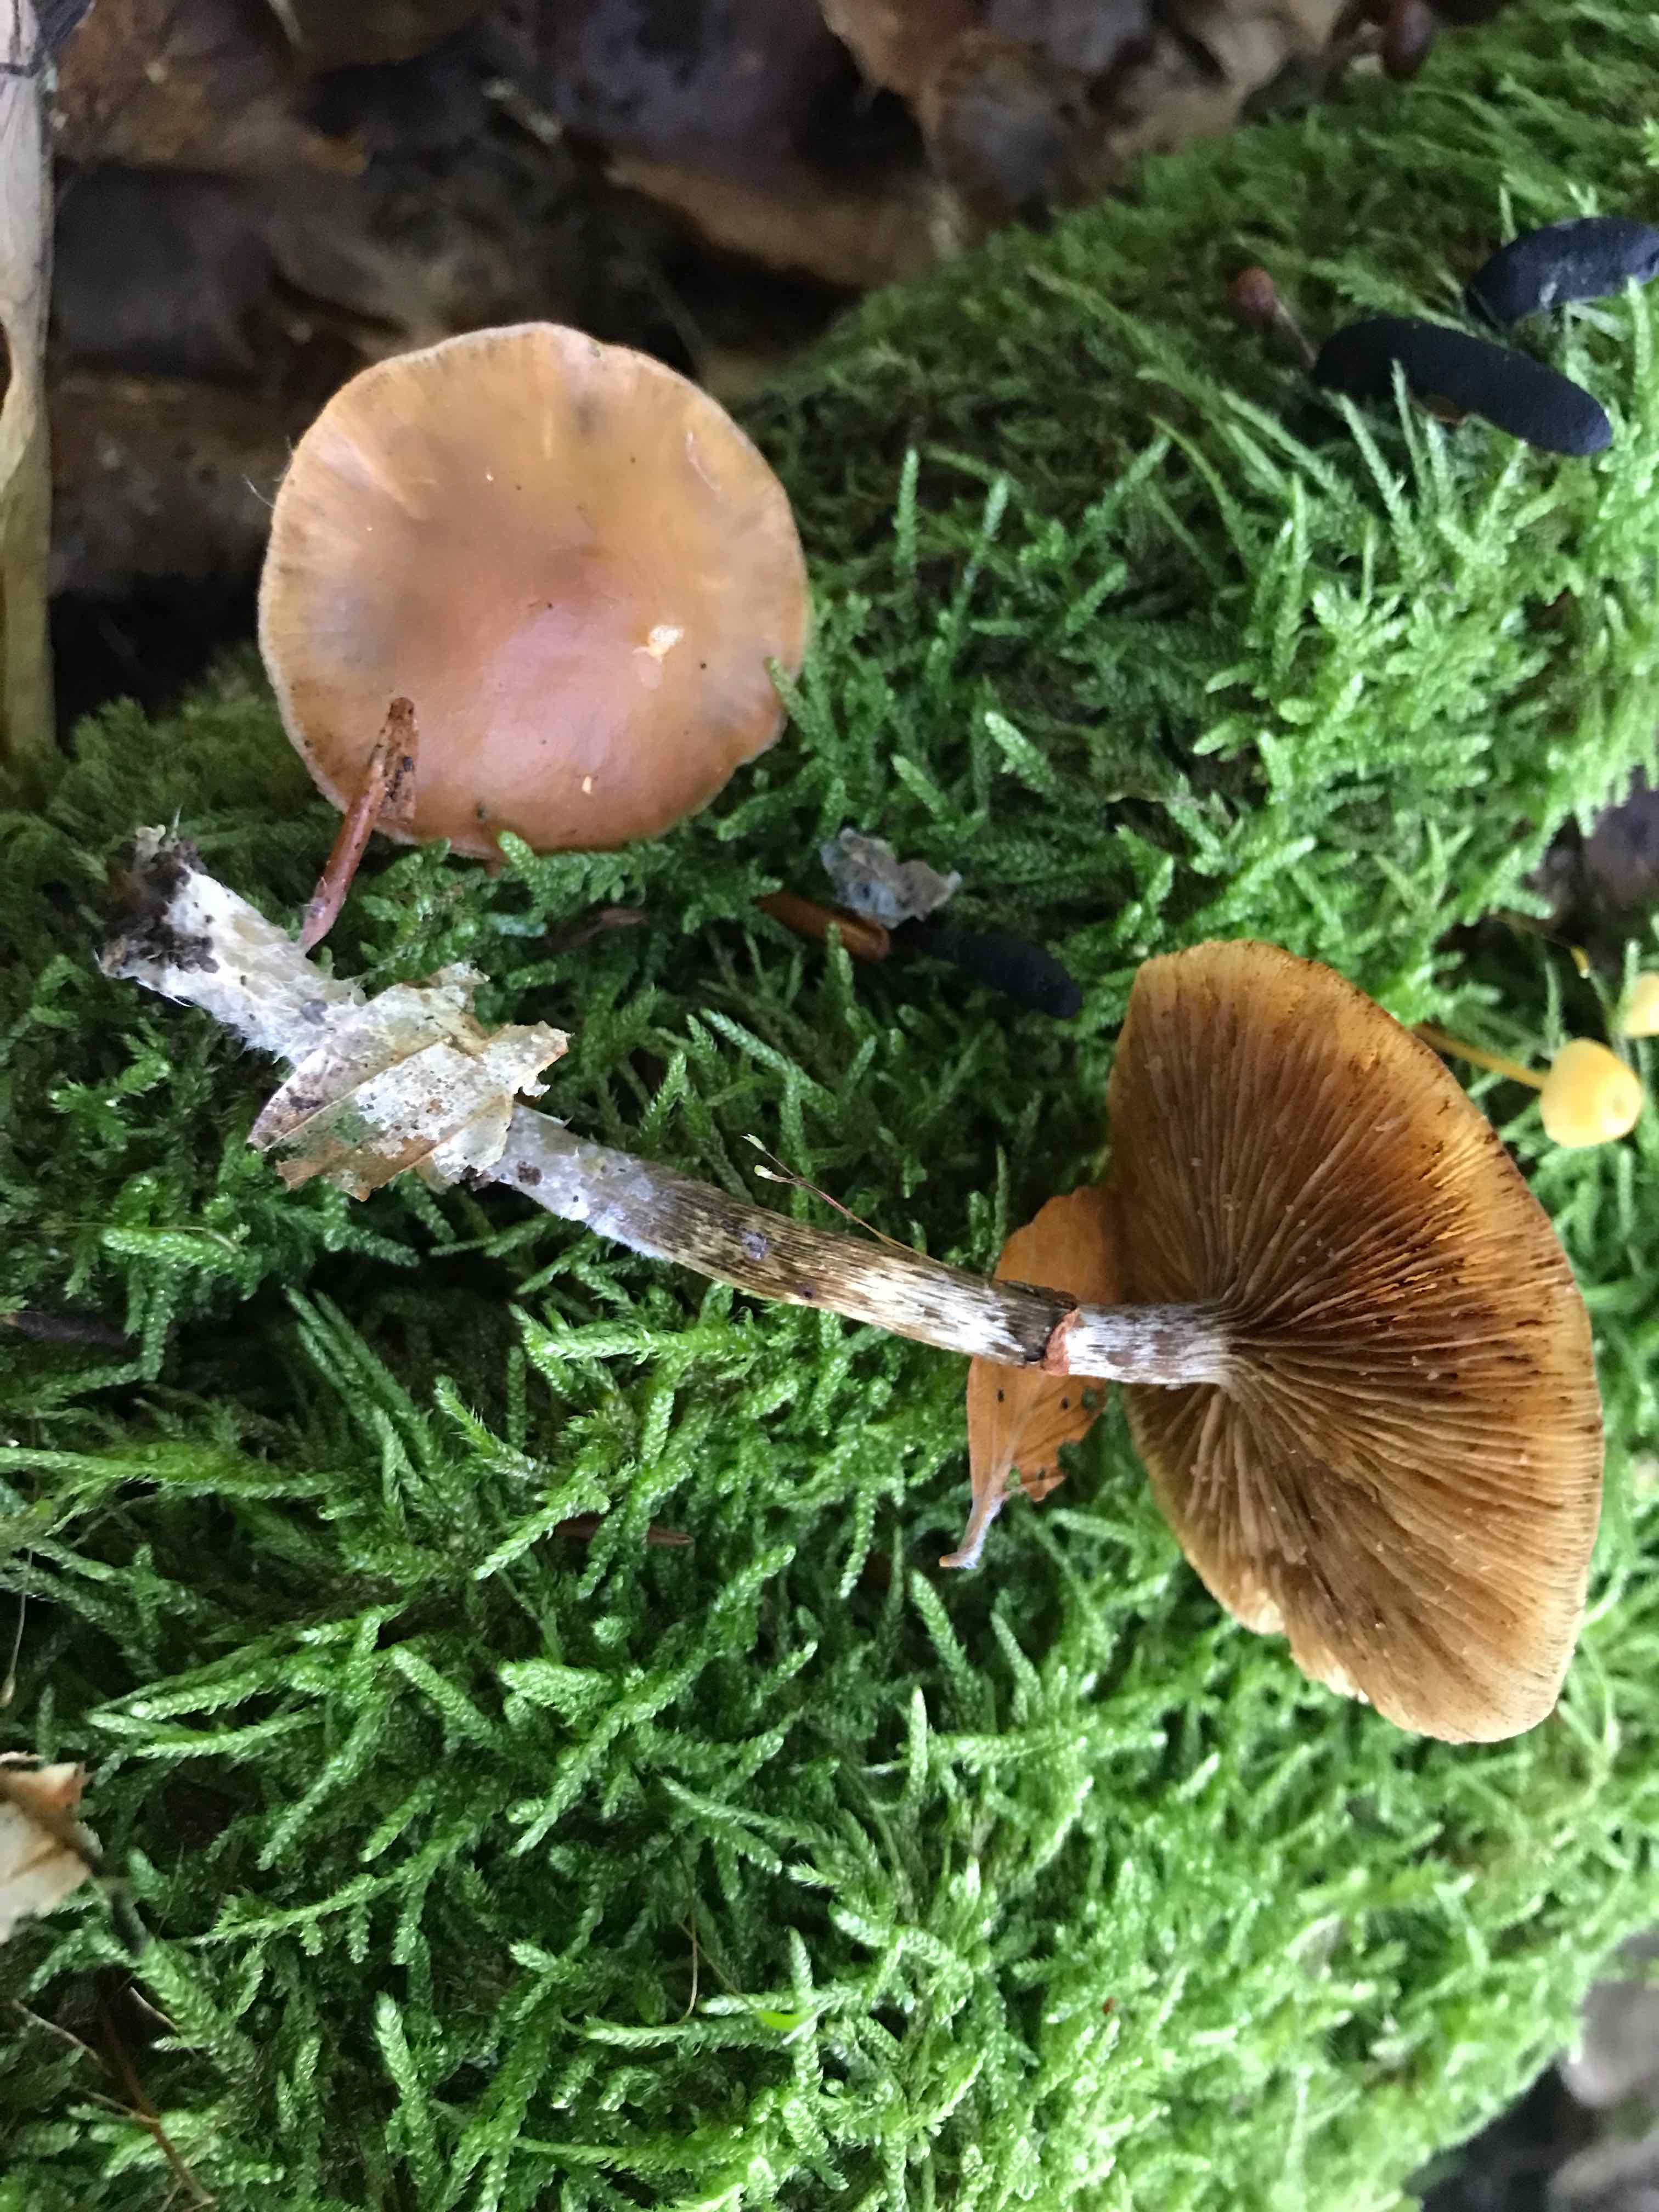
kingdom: Fungi
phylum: Basidiomycota
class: Agaricomycetes
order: Agaricales
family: Hymenogastraceae
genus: Galerina
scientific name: Galerina marginata
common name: randbæltet hjelmhat
